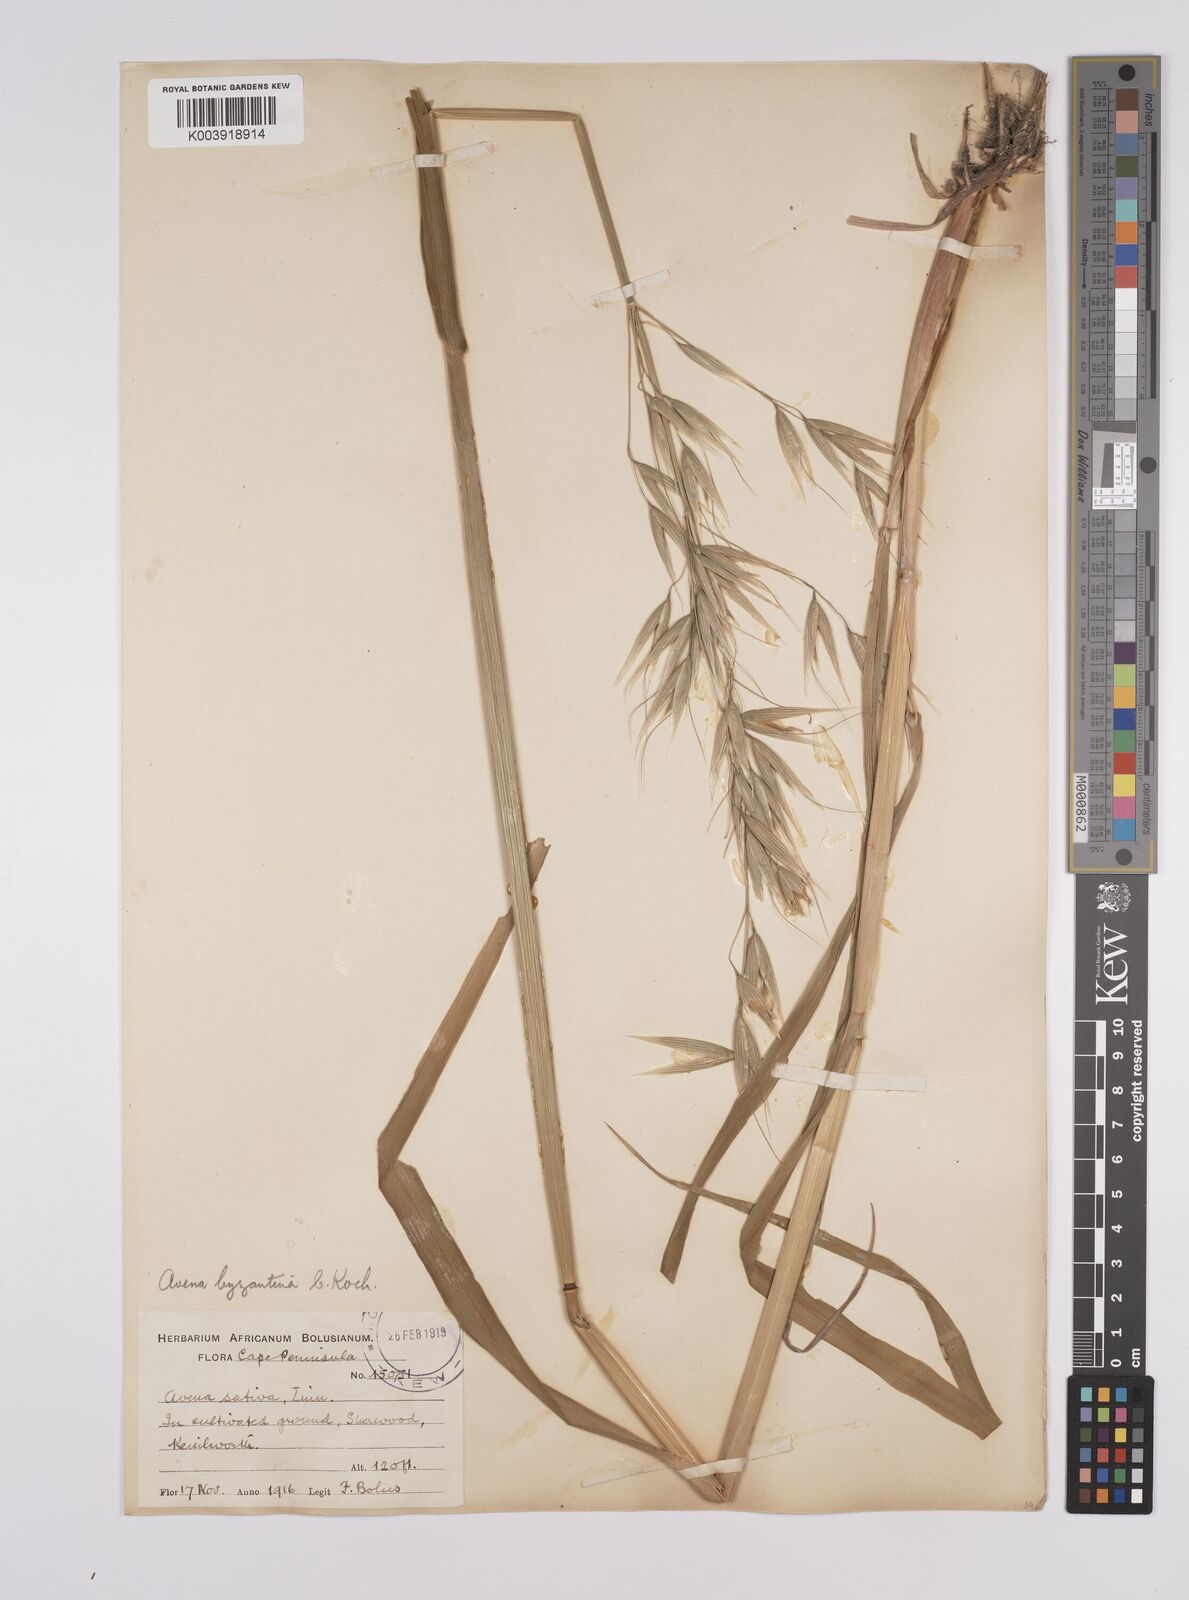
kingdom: Plantae
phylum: Tracheophyta
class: Liliopsida
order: Poales
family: Poaceae
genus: Avena
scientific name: Avena byzantina
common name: Algerian oat
